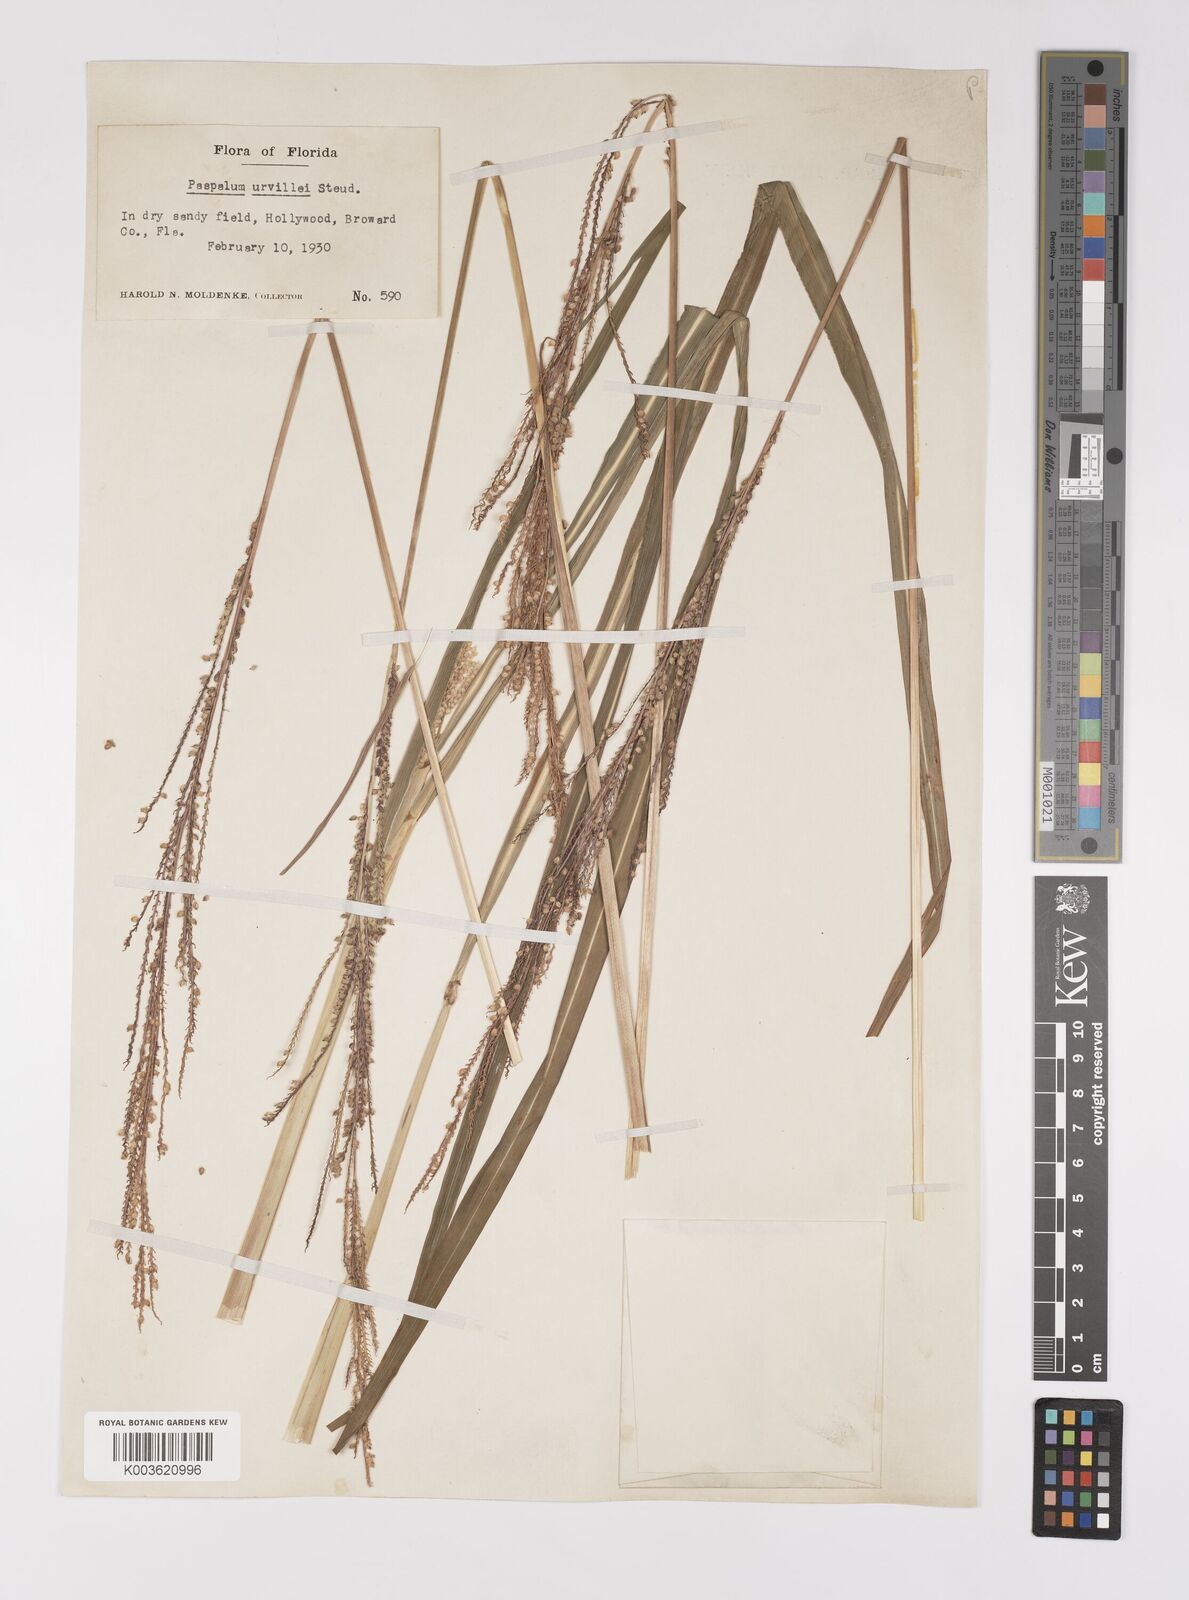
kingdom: Plantae
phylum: Tracheophyta
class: Liliopsida
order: Poales
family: Poaceae
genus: Paspalum
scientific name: Paspalum urvillei
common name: Vasey's grass
